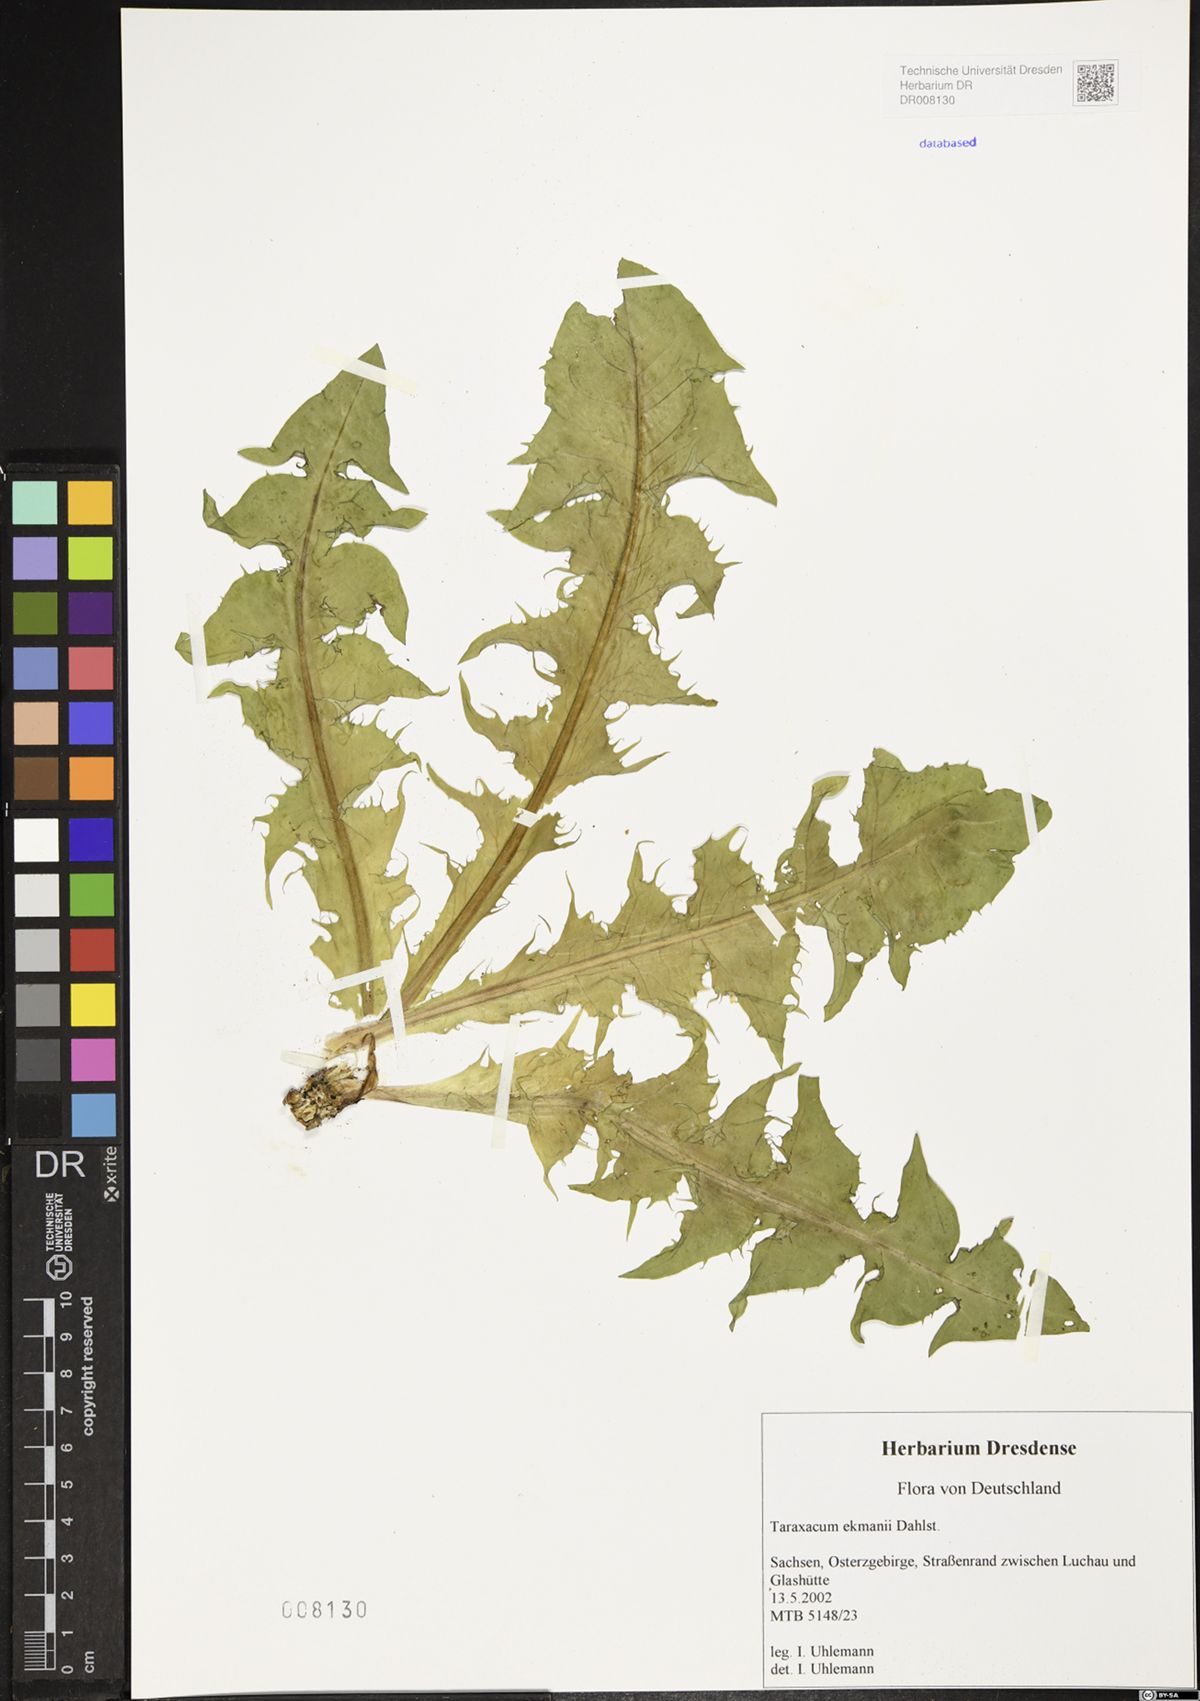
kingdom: Plantae
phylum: Tracheophyta
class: Magnoliopsida
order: Asterales
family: Asteraceae
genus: Taraxacum
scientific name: Taraxacum ekmanii
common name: Ekman's dandelion
